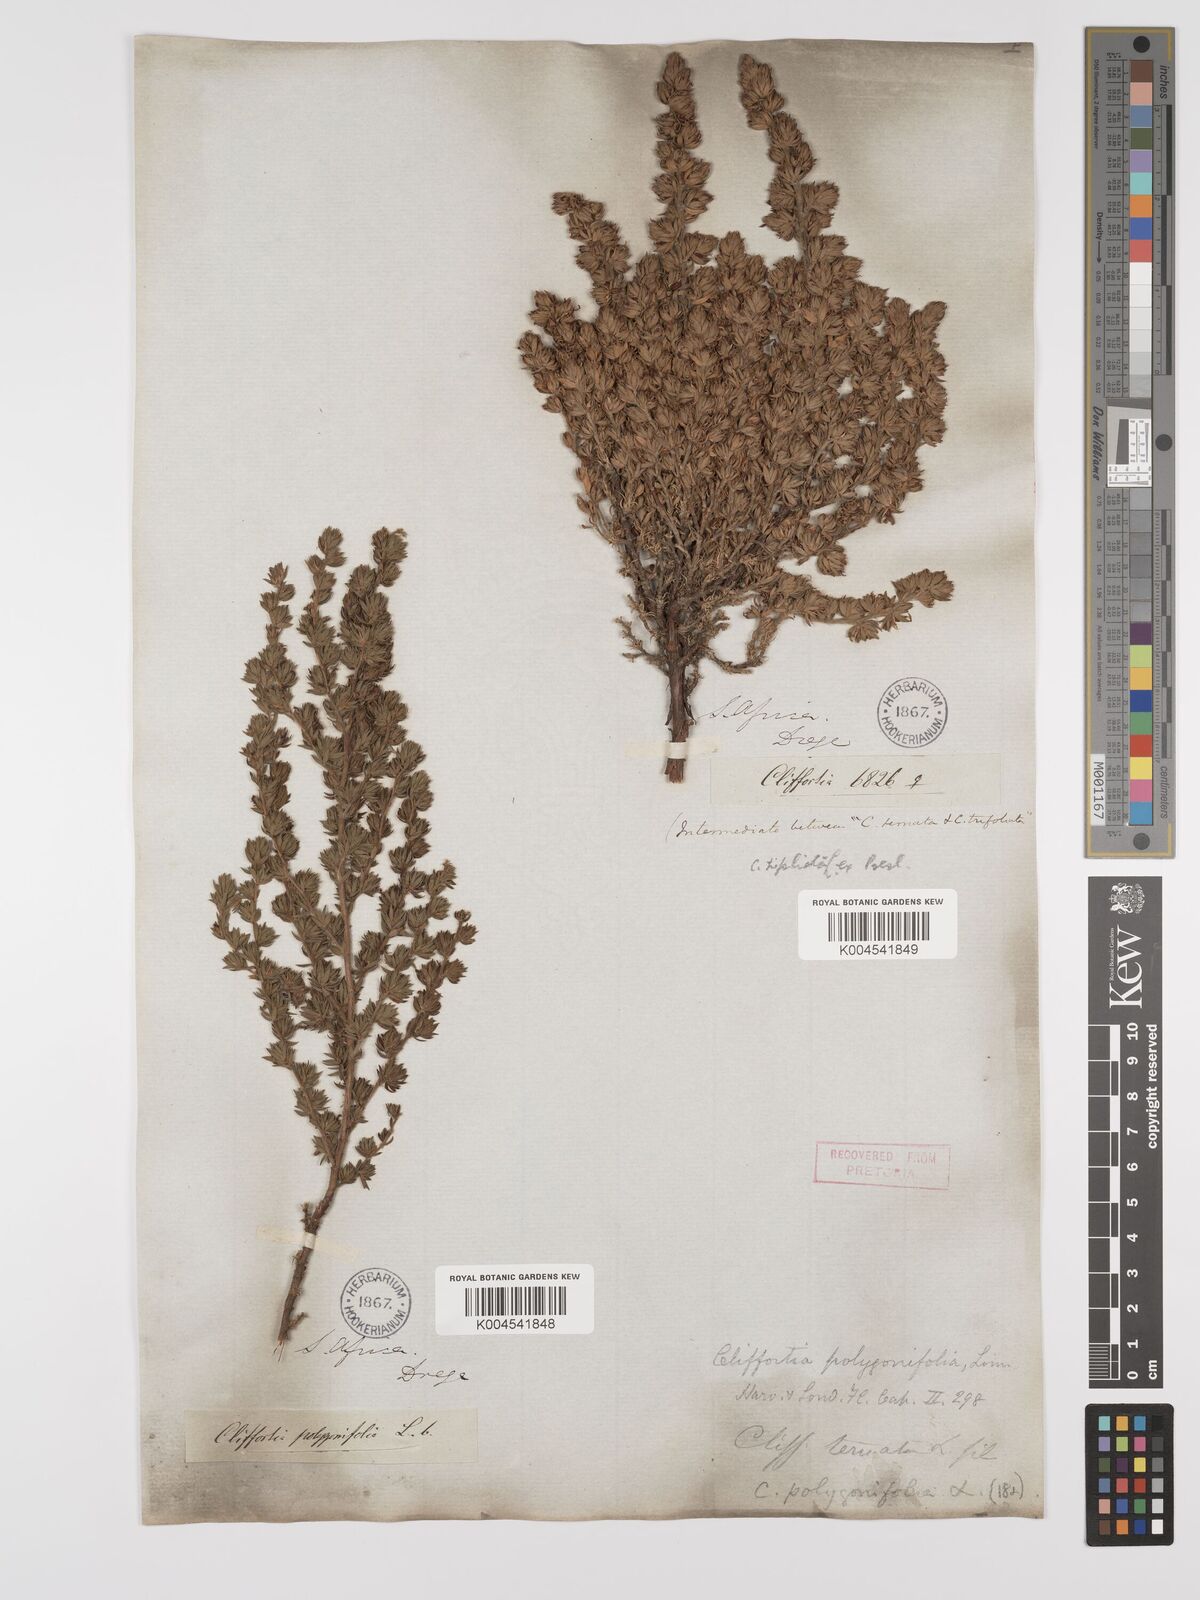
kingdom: Plantae
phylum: Tracheophyta
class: Magnoliopsida
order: Rosales
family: Rosaceae
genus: Cliffortia
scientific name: Cliffortia polygonifolia
